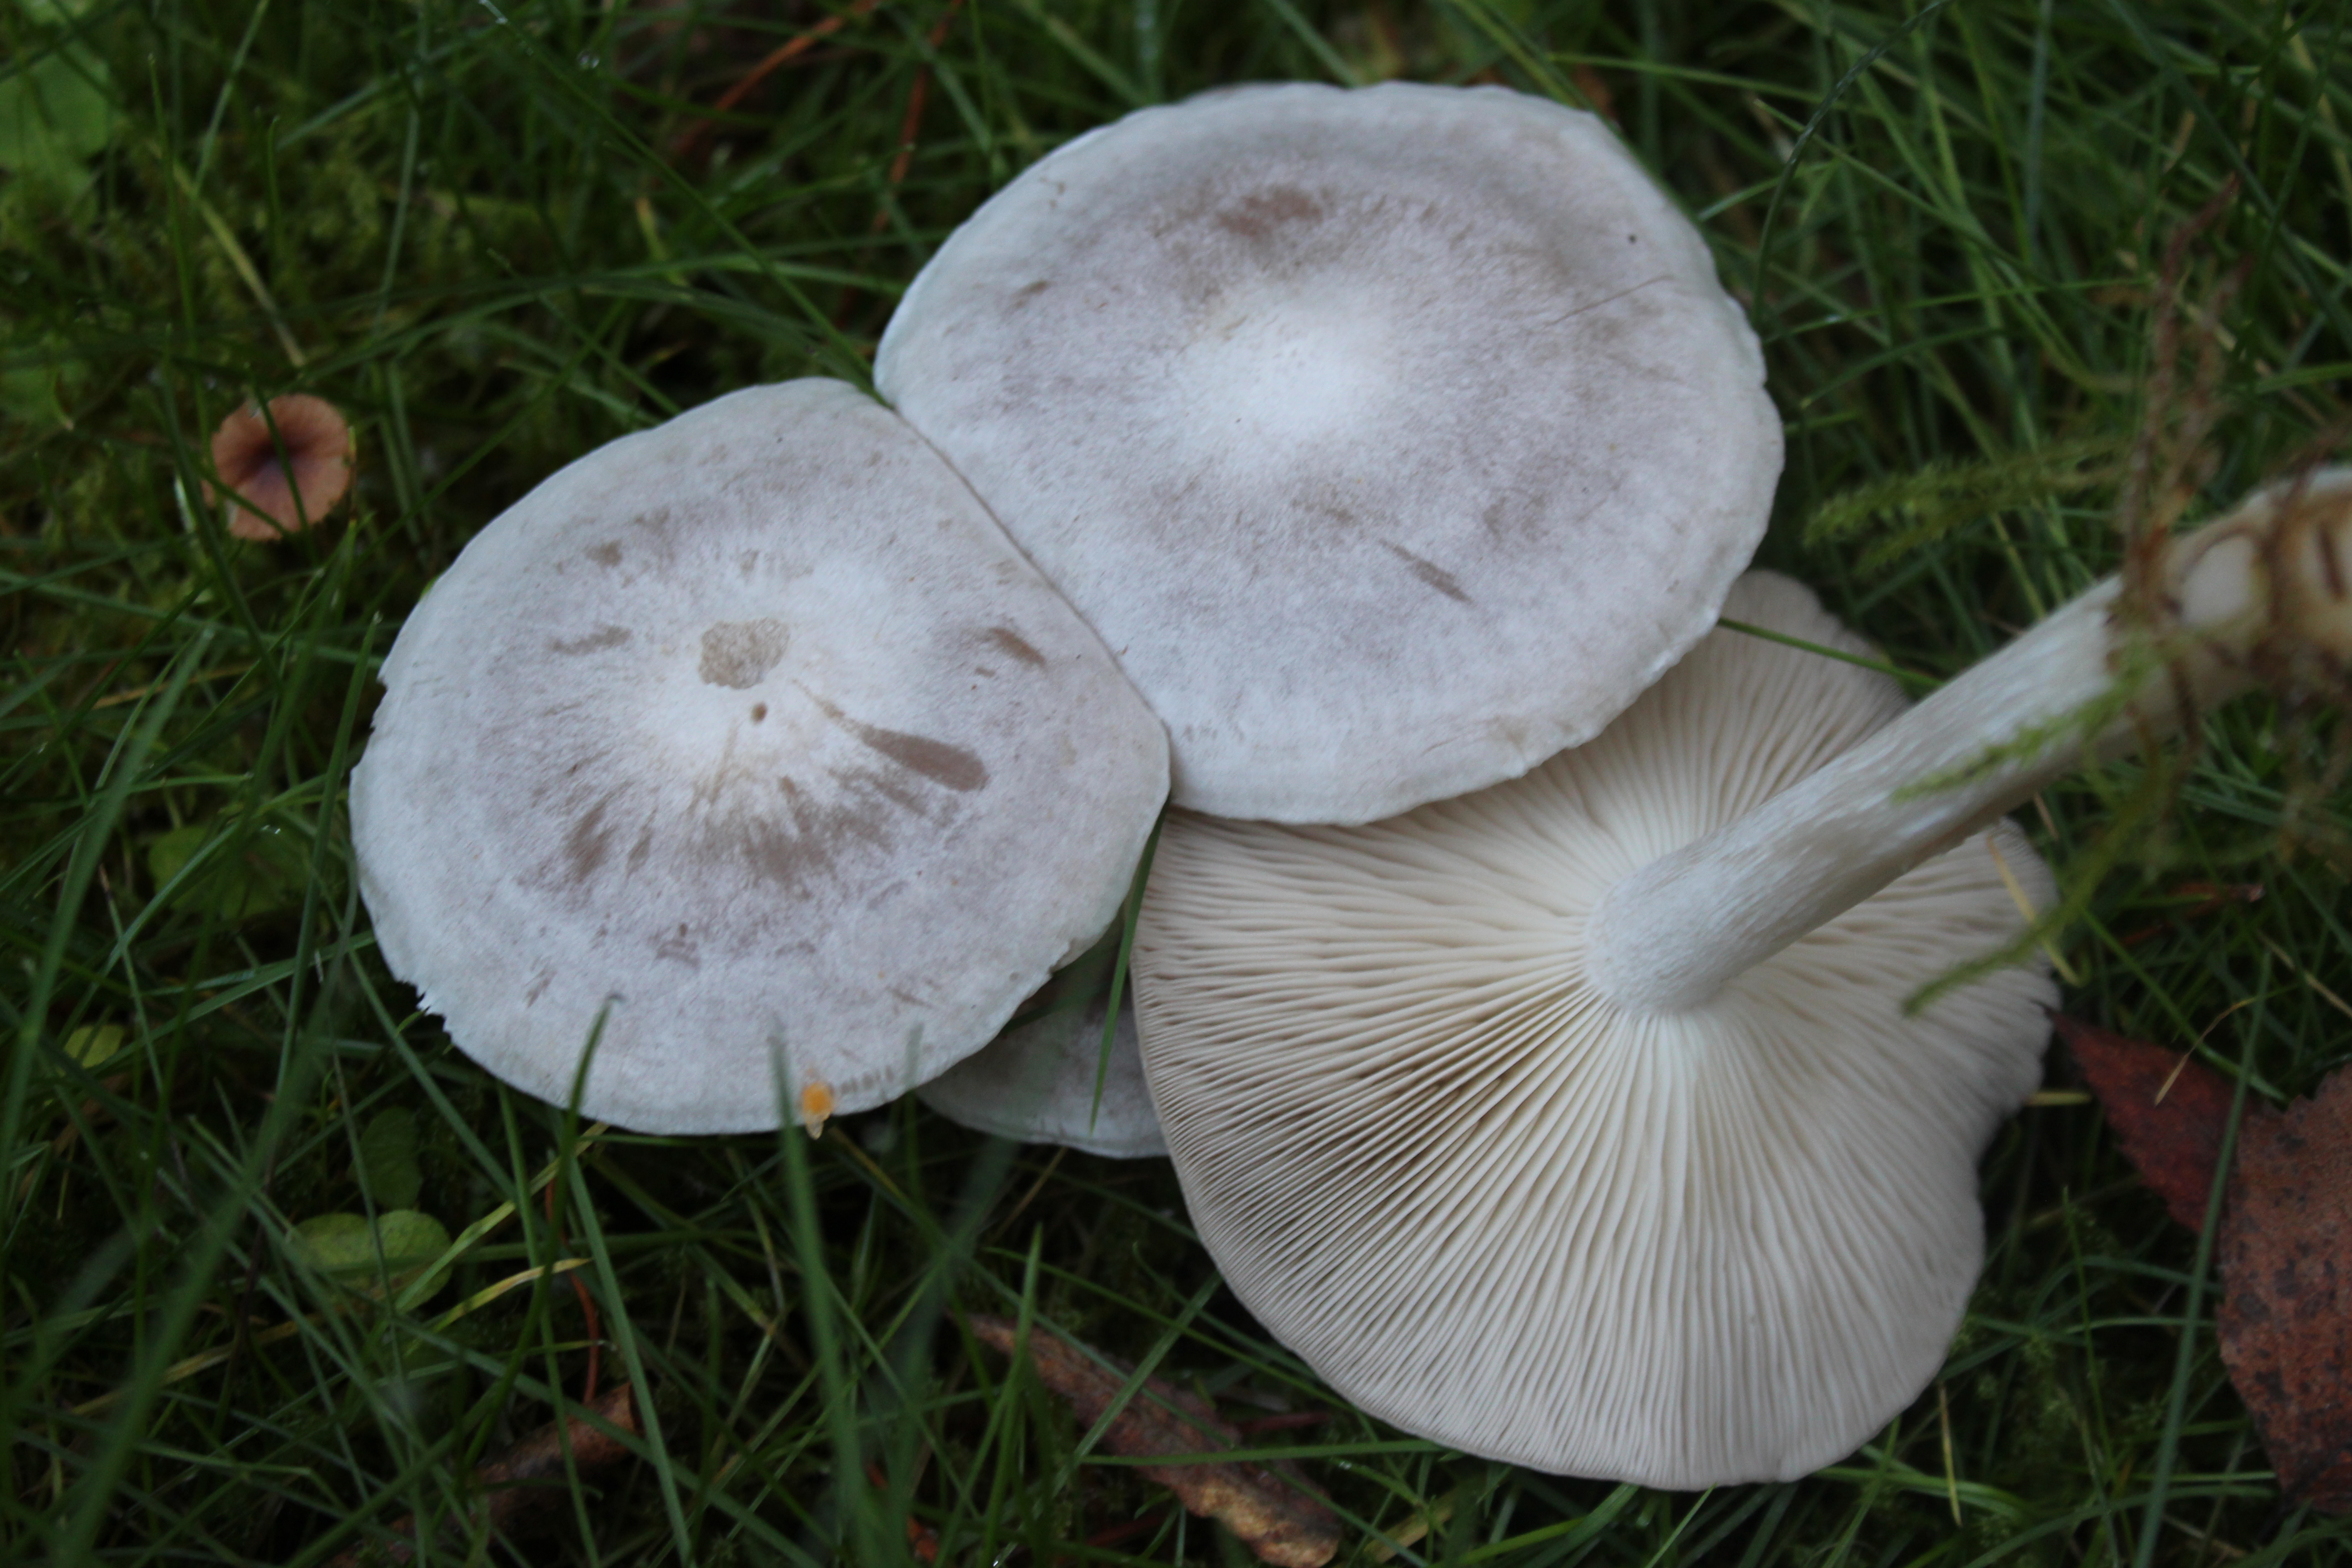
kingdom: Fungi
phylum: Basidiomycota
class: Agaricomycetes
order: Agaricales
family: Tricholomataceae
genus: Leucocybe
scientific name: Leucocybe connata
